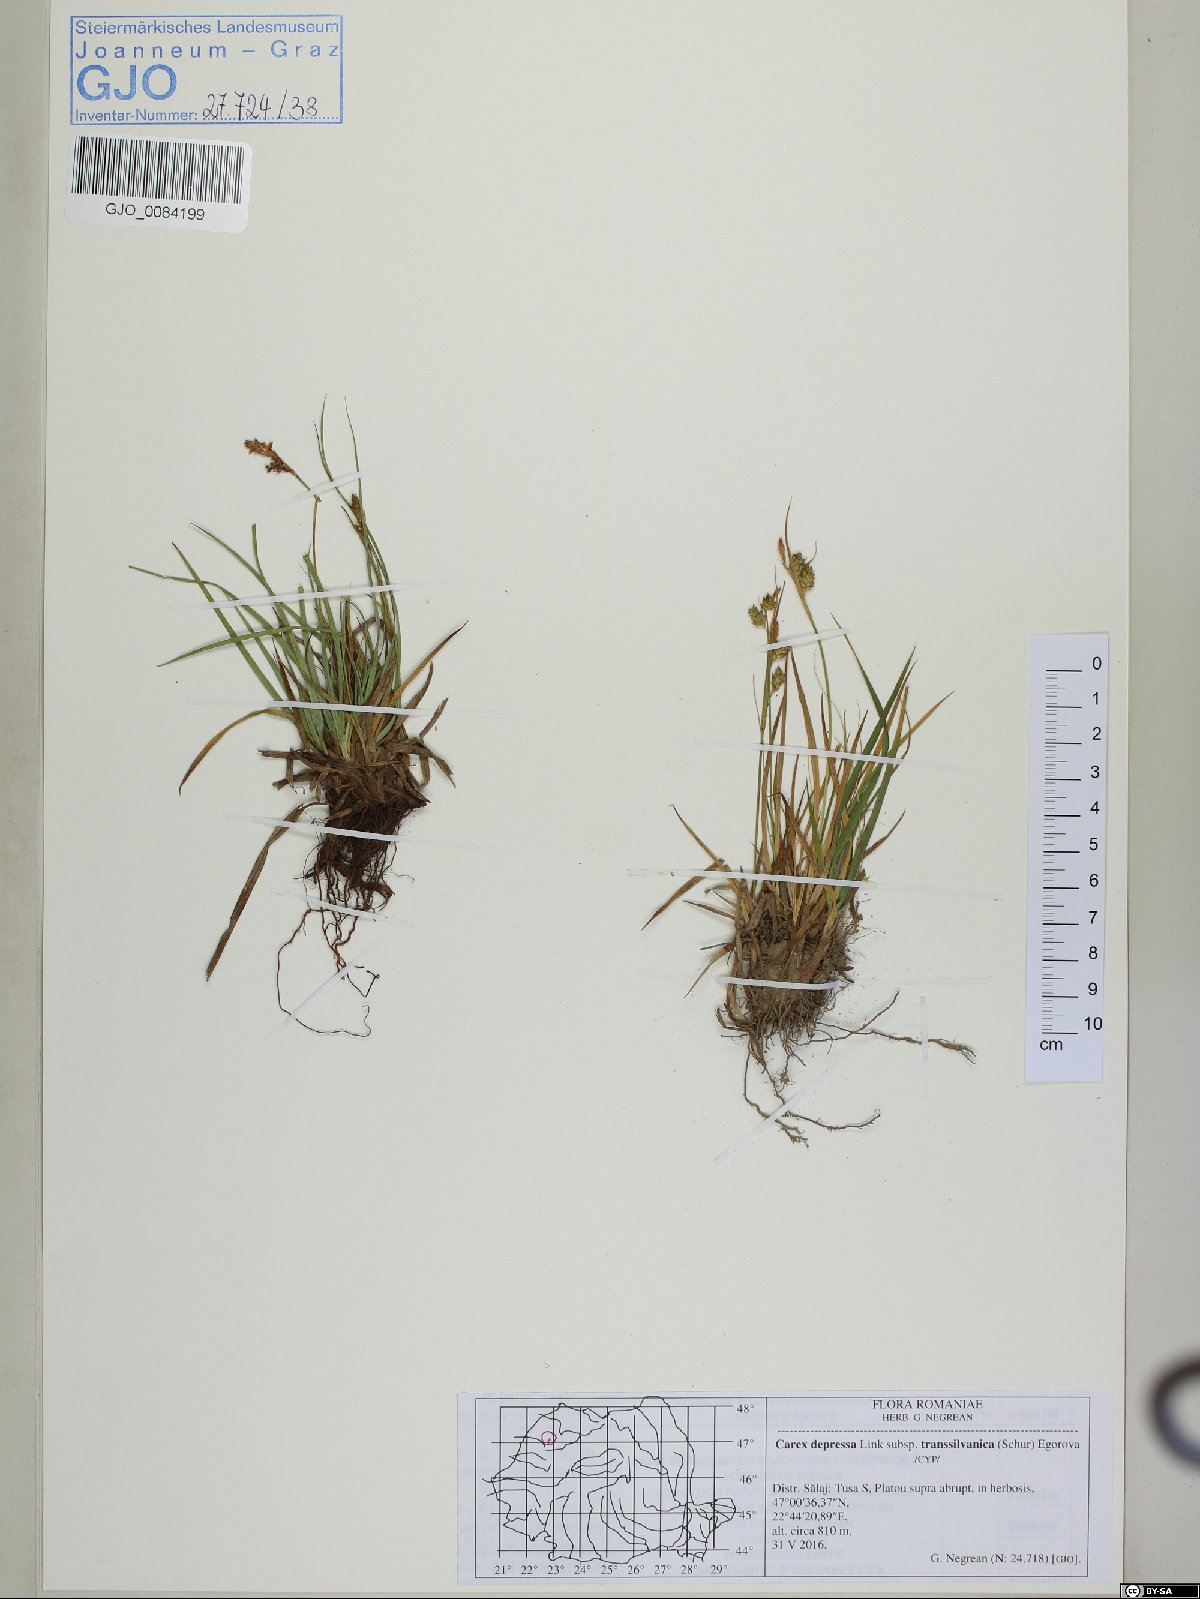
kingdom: Plantae
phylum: Tracheophyta
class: Liliopsida
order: Poales
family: Cyperaceae
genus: Carex
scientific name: Carex depressa
